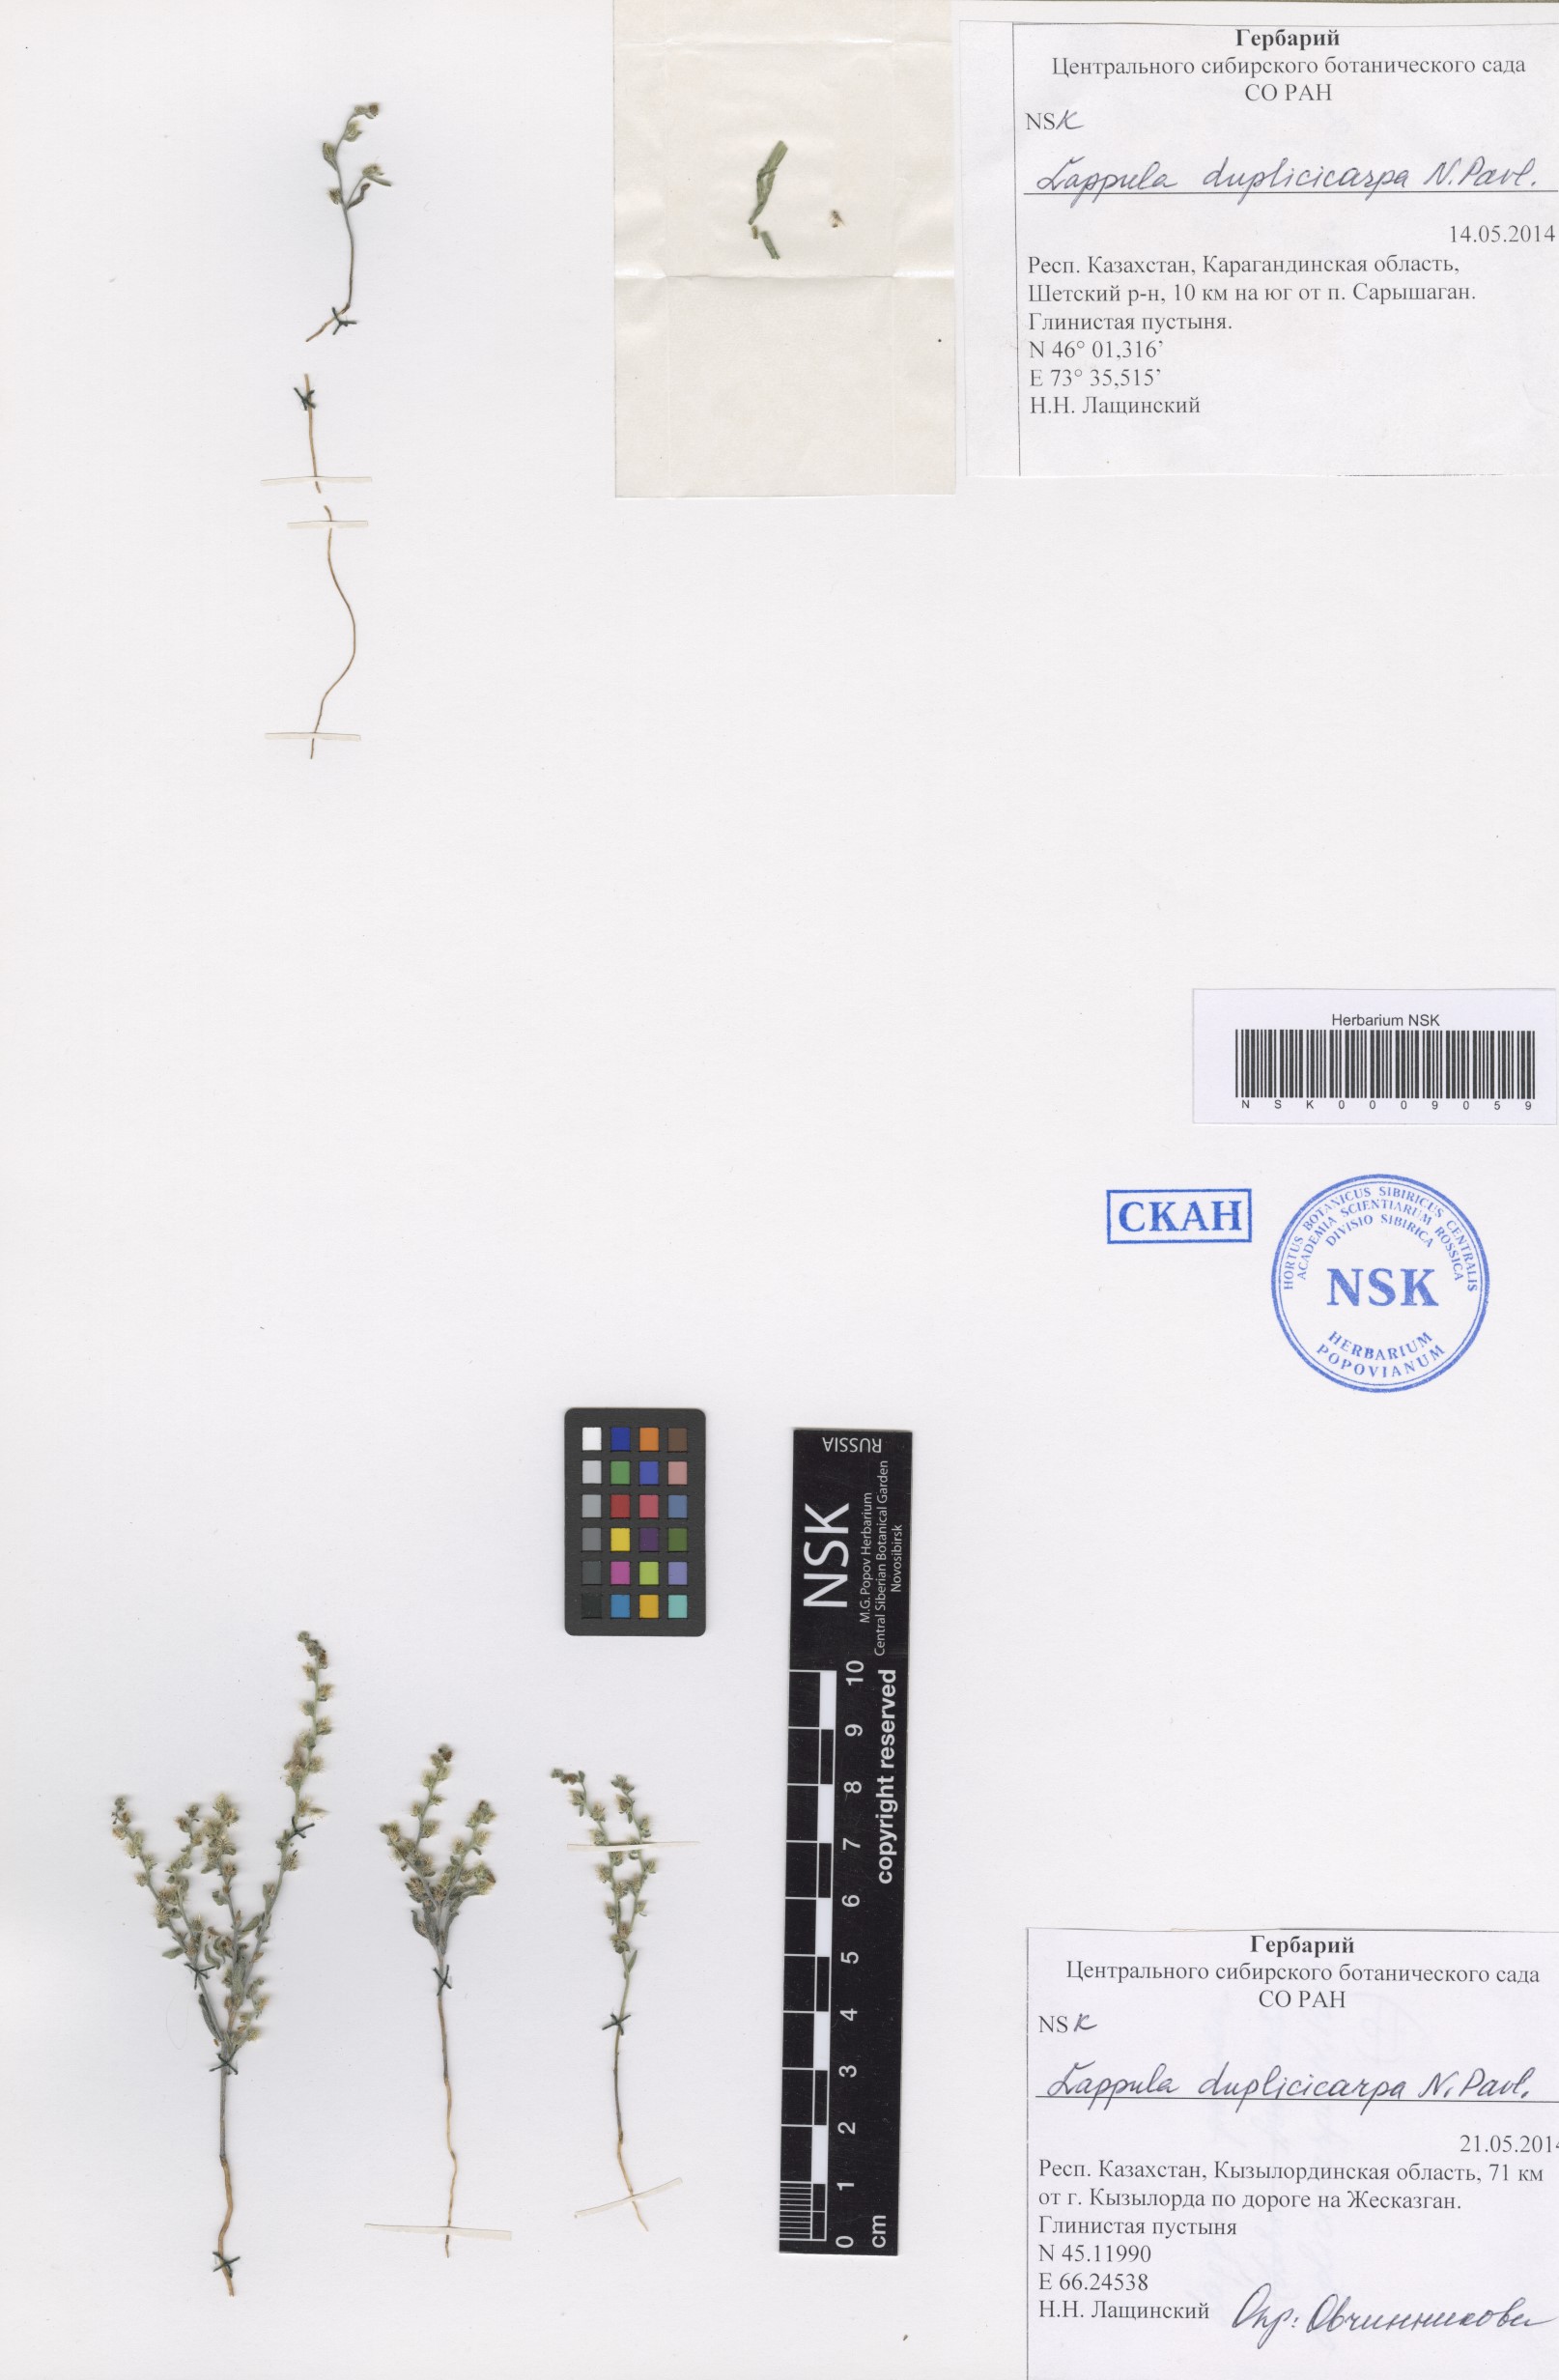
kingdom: Plantae
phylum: Tracheophyta
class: Magnoliopsida
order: Boraginales
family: Boraginaceae
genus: Lappula
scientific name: Lappula duplicicarpa
